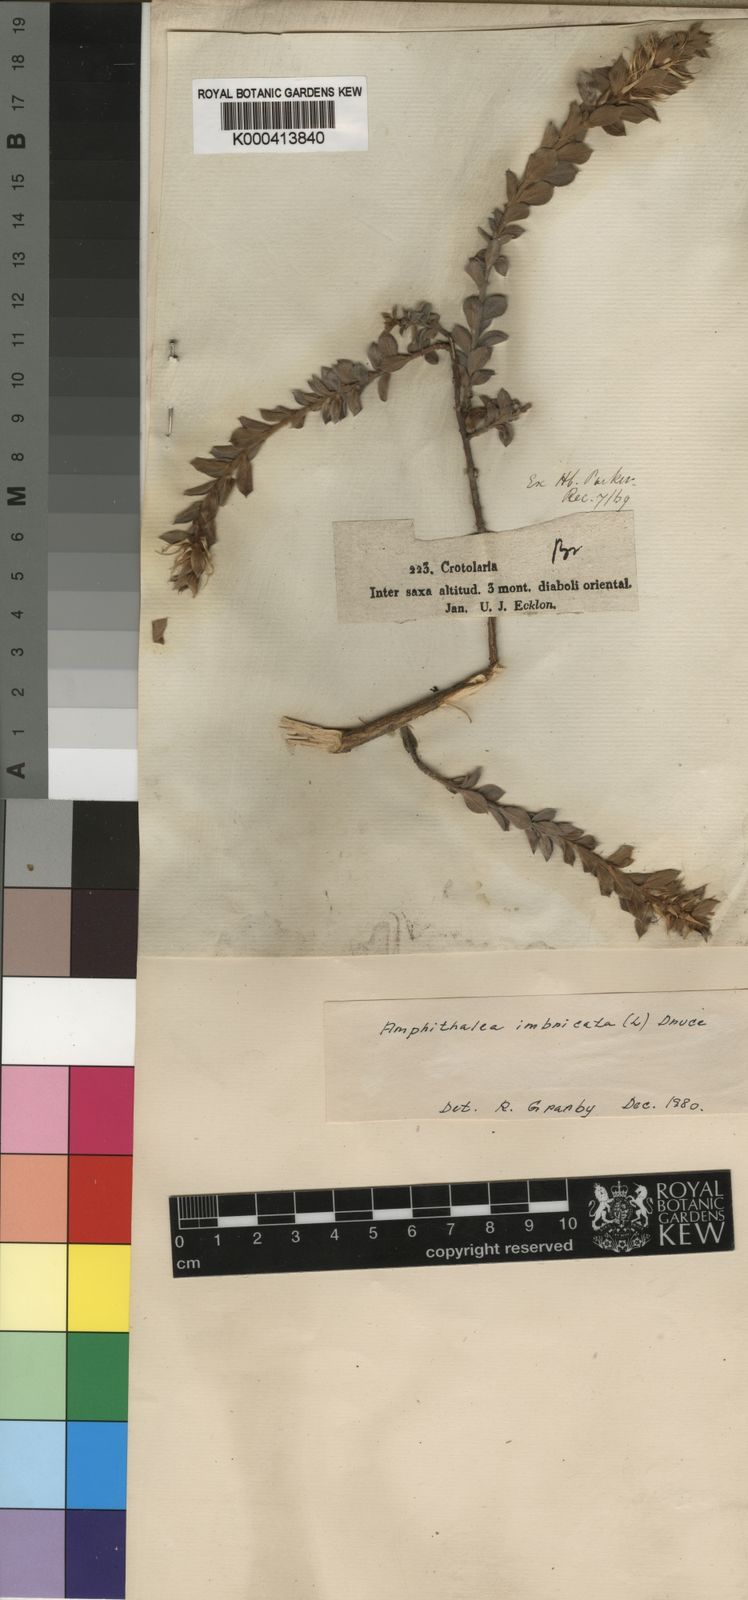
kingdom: Plantae
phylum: Tracheophyta
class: Magnoliopsida
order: Fabales
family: Fabaceae
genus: Amphithalea
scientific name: Amphithalea imbricata
